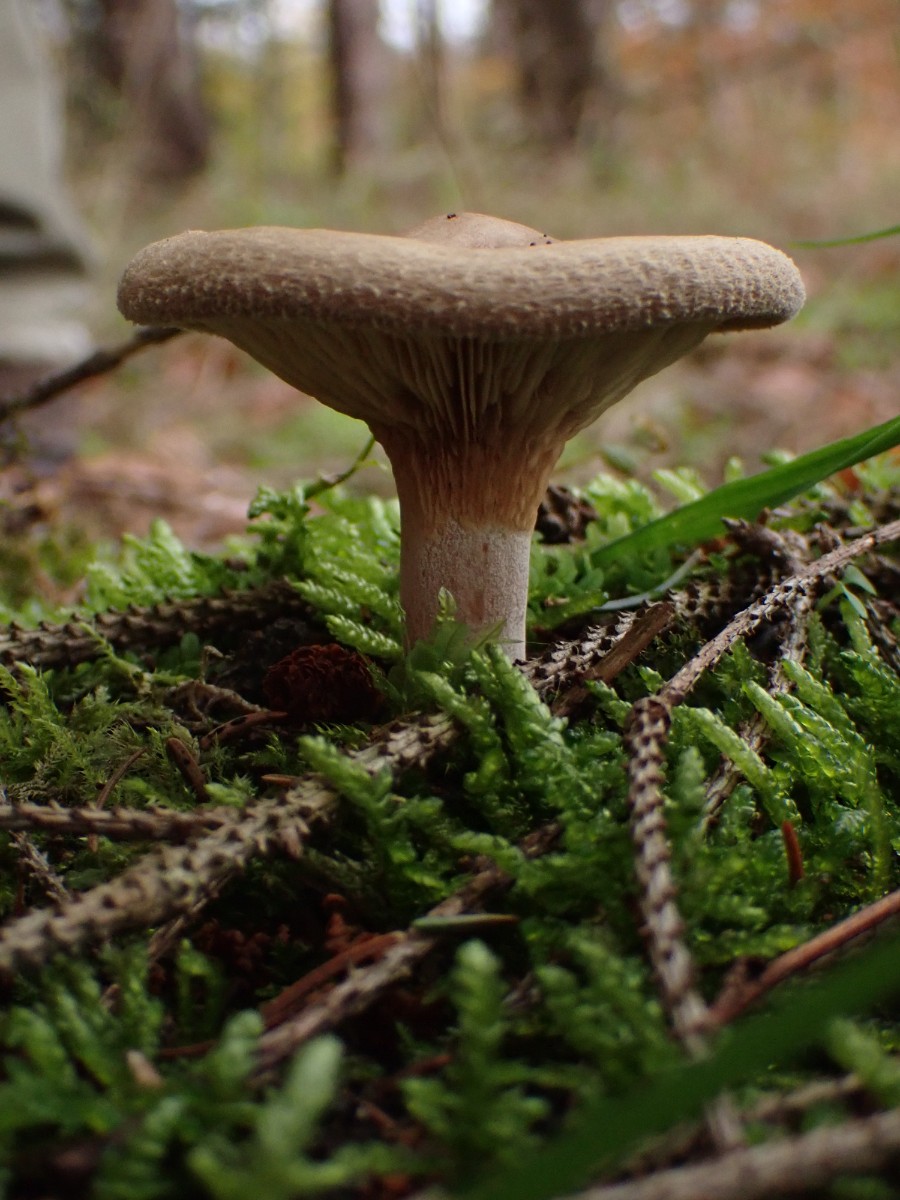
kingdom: Fungi
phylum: Basidiomycota
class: Agaricomycetes
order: Boletales
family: Paxillaceae
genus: Paxillus
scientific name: Paxillus involutus
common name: almindelig netbladhat
